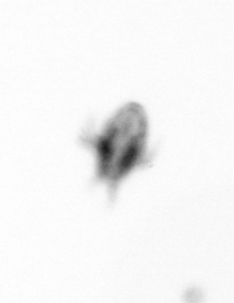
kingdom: Animalia
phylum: Arthropoda
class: Copepoda
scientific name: Copepoda
